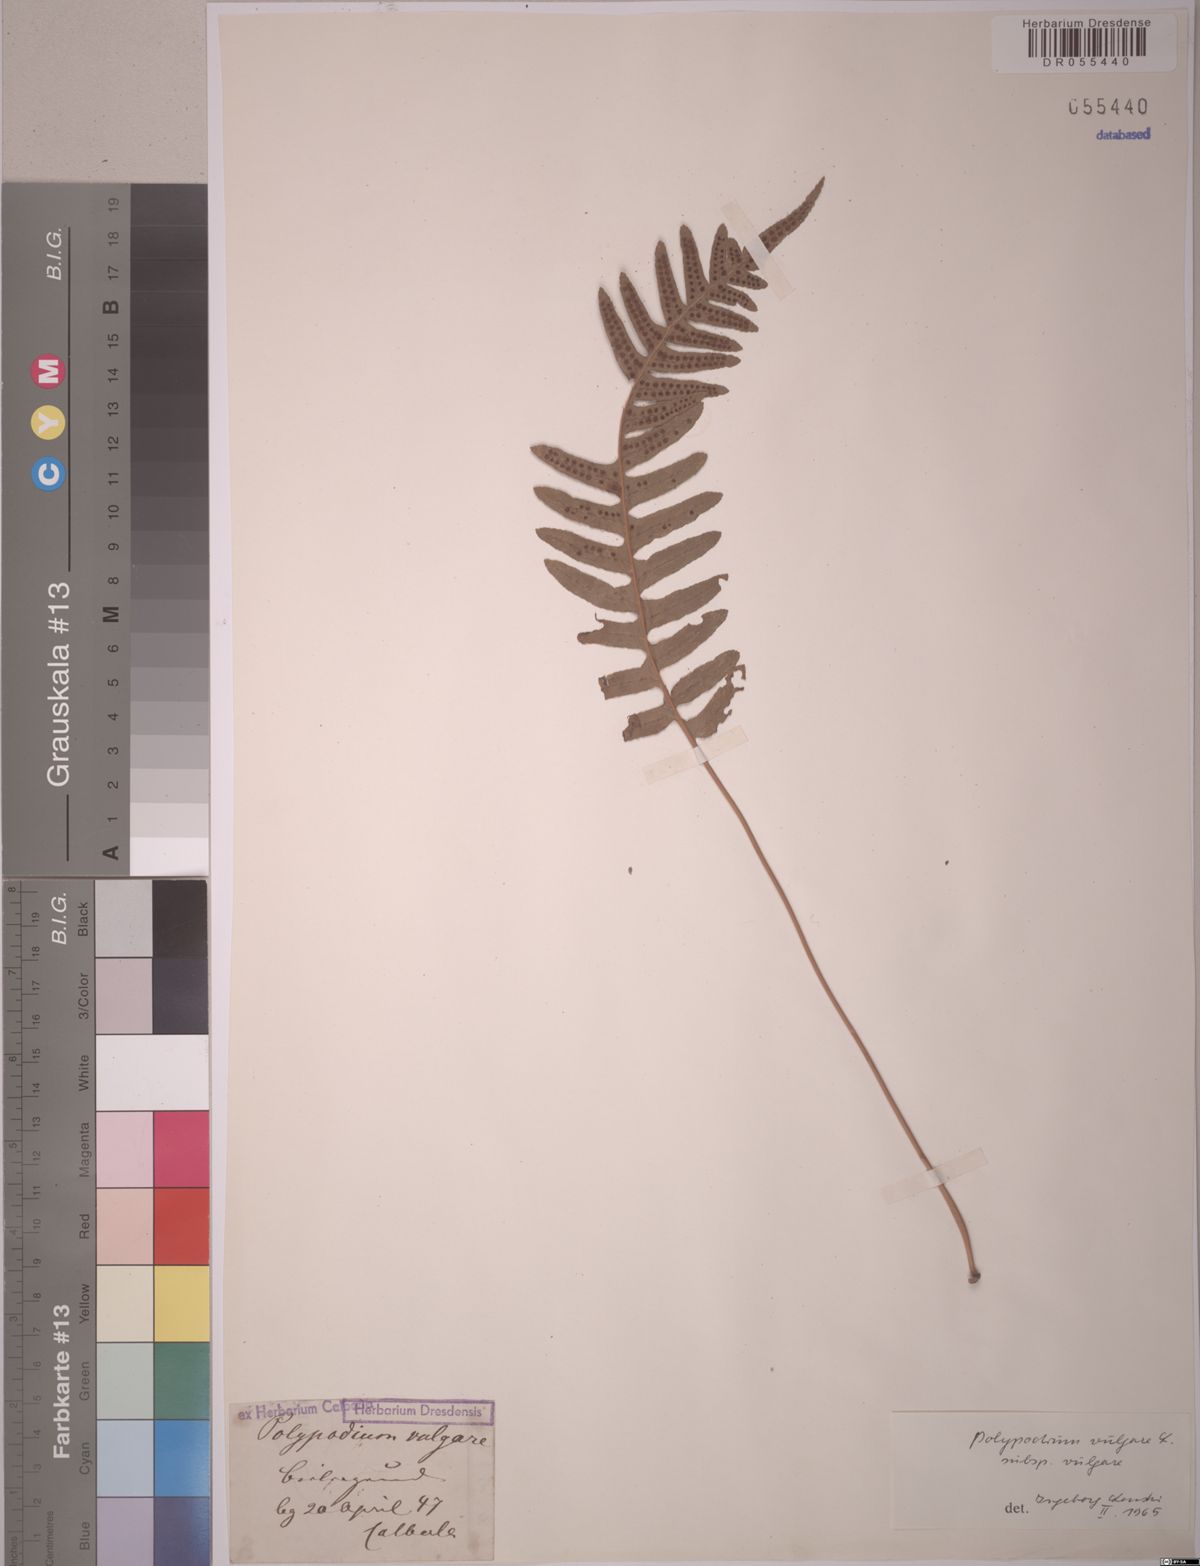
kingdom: Plantae
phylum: Tracheophyta
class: Polypodiopsida
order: Polypodiales
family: Polypodiaceae
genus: Polypodium
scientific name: Polypodium vulgare
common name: Common polypody
